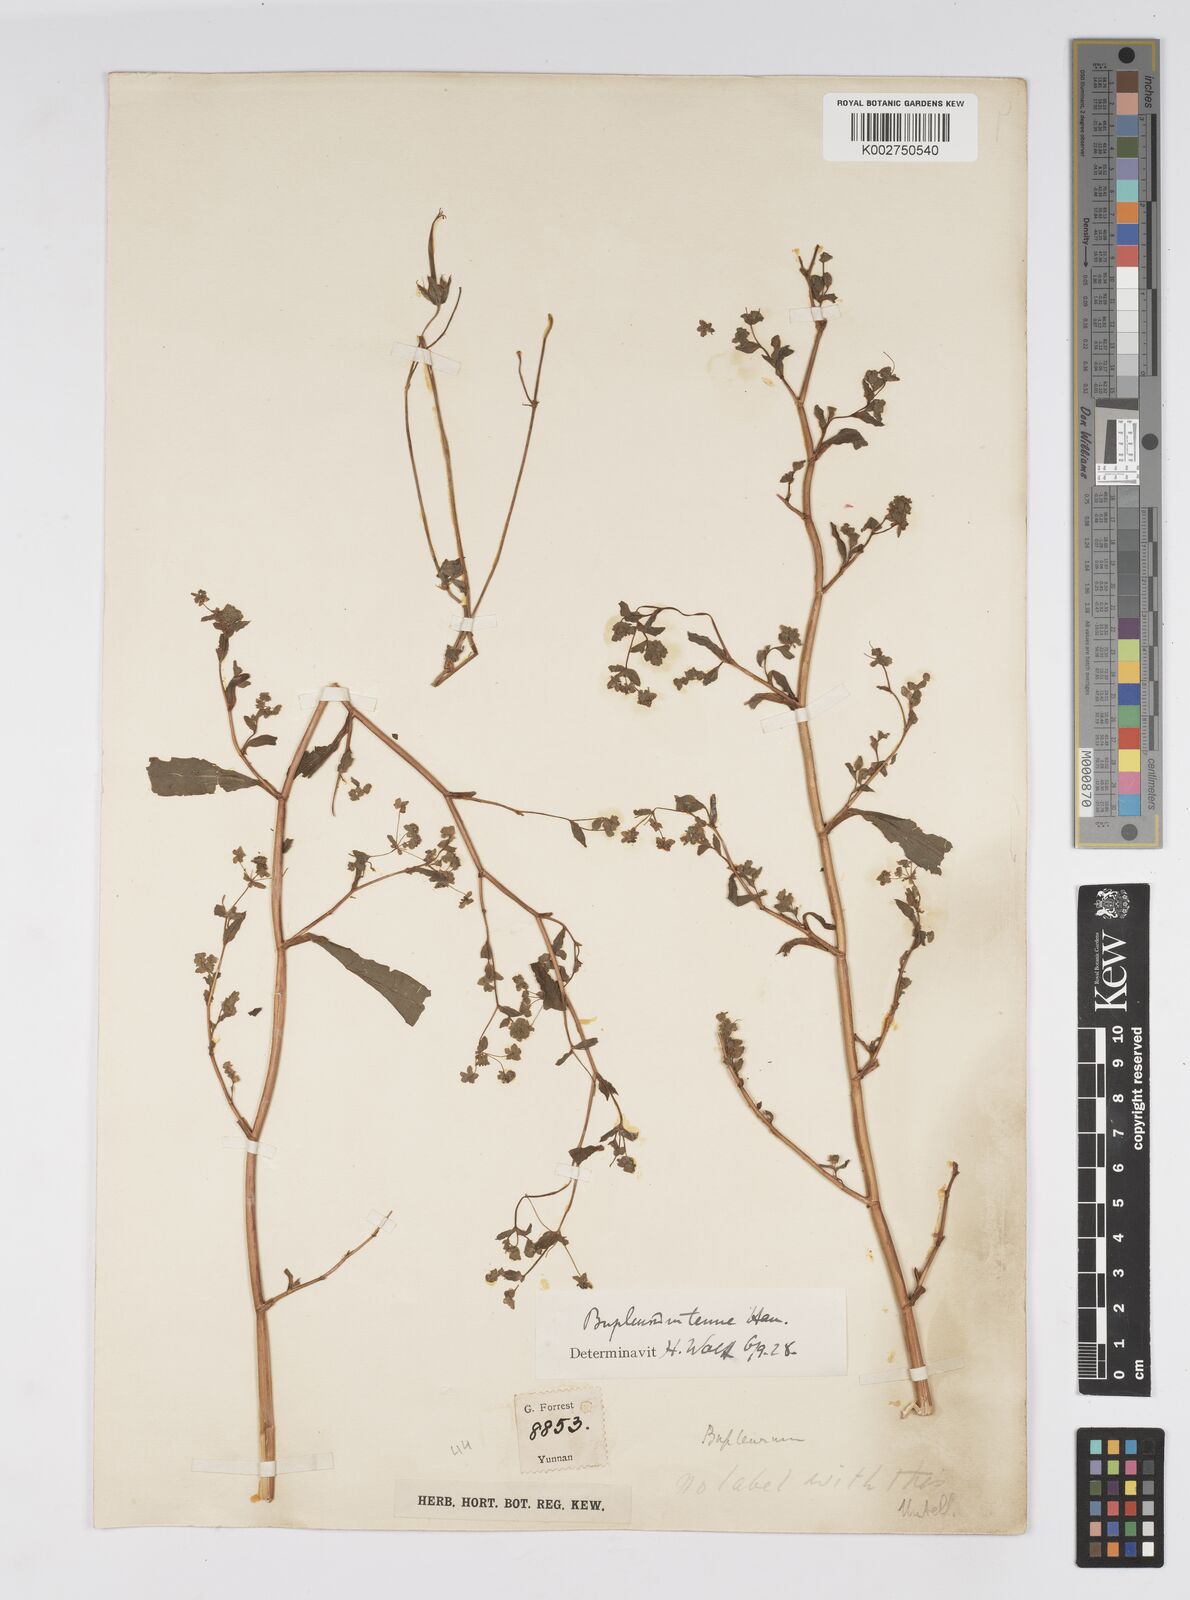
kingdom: Plantae
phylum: Tracheophyta
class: Magnoliopsida
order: Apiales
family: Apiaceae
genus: Bupleurum
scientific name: Bupleurum hamiltonii
